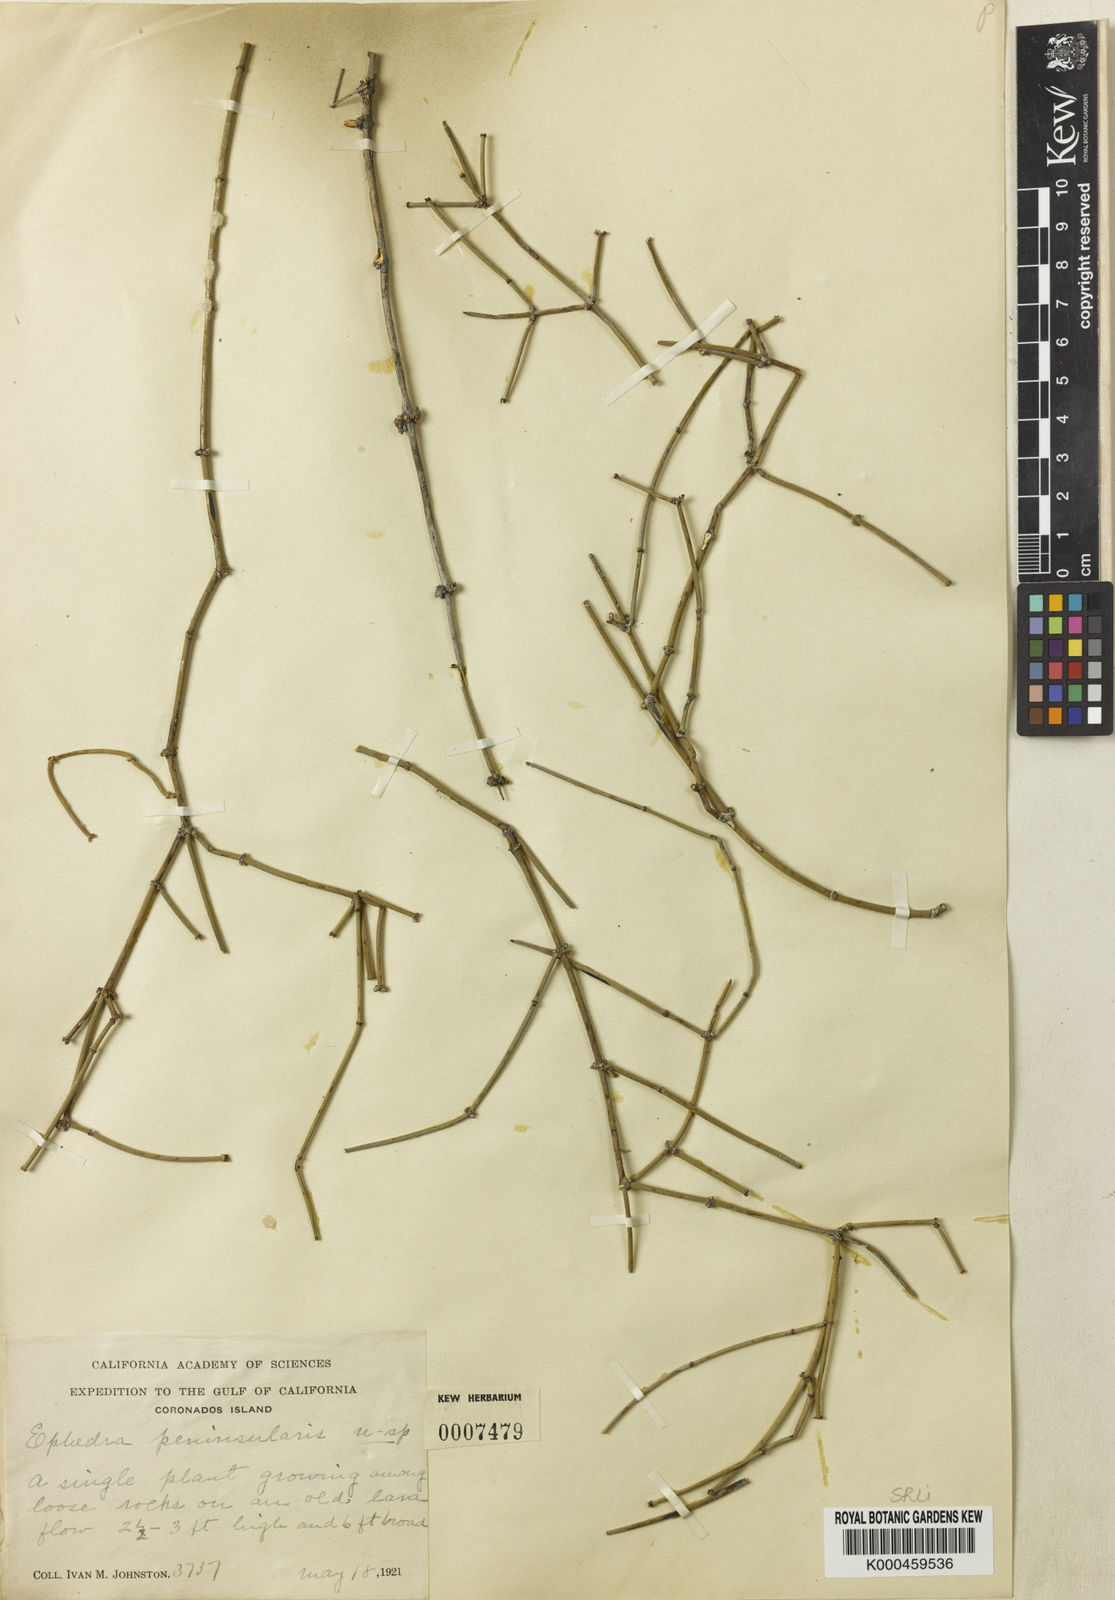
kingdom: Plantae
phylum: Tracheophyta
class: Gnetopsida
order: Ephedrales
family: Ephedraceae
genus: Ephedra
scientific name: Ephedra aspera
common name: Boundary ephedra
